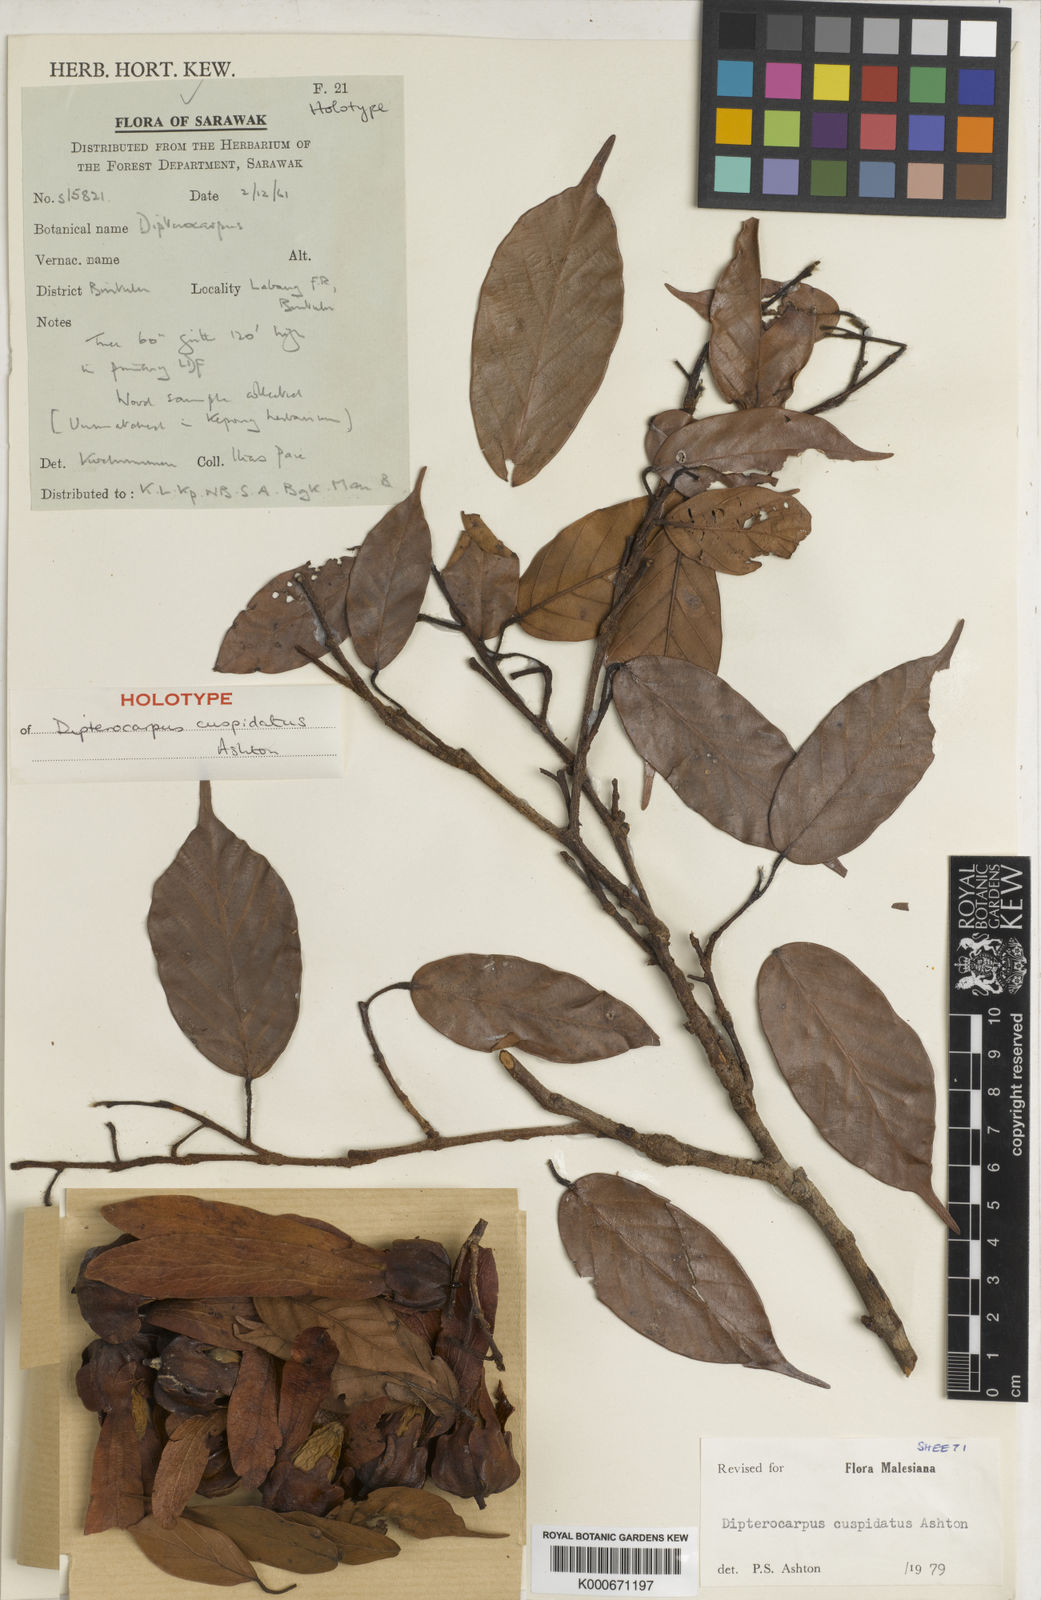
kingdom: Plantae
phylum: Tracheophyta
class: Magnoliopsida
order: Malvales
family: Dipterocarpaceae
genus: Dipterocarpus
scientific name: Dipterocarpus cuspidatus
